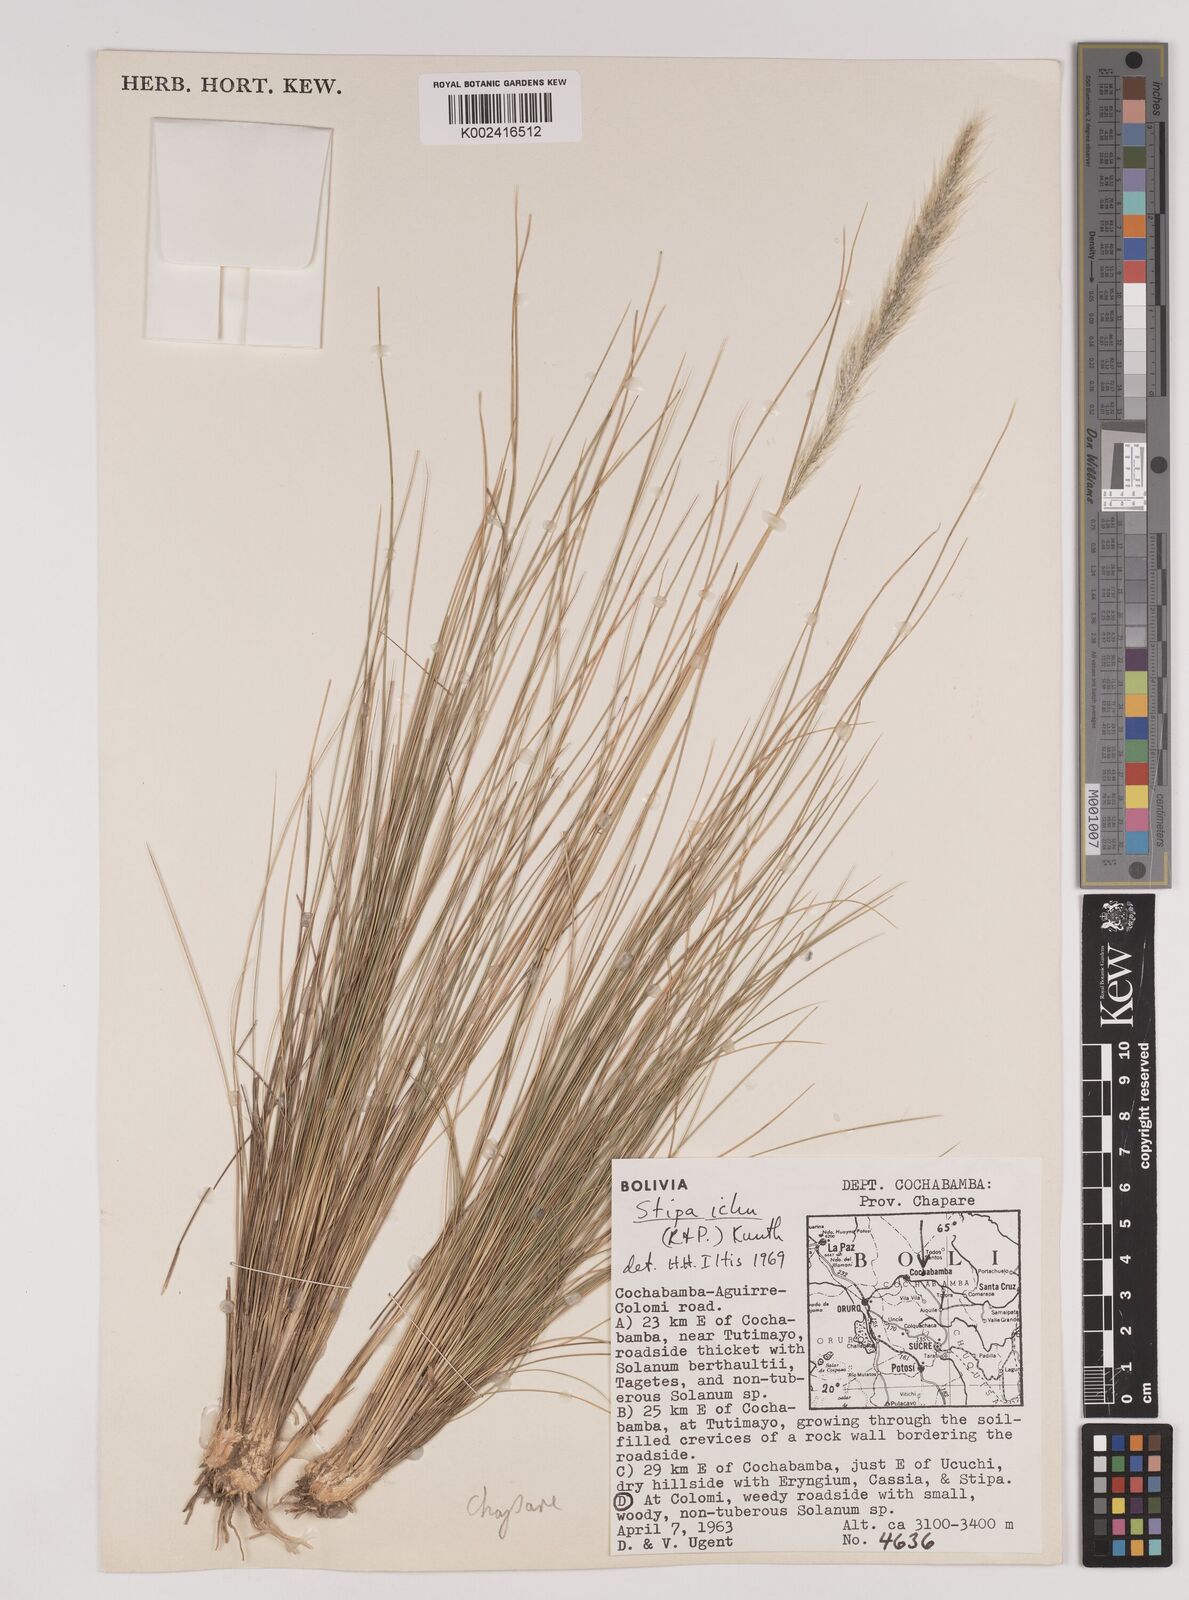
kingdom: Plantae
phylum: Tracheophyta
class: Liliopsida
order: Poales
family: Poaceae
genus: Jarava
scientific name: Jarava ichu
